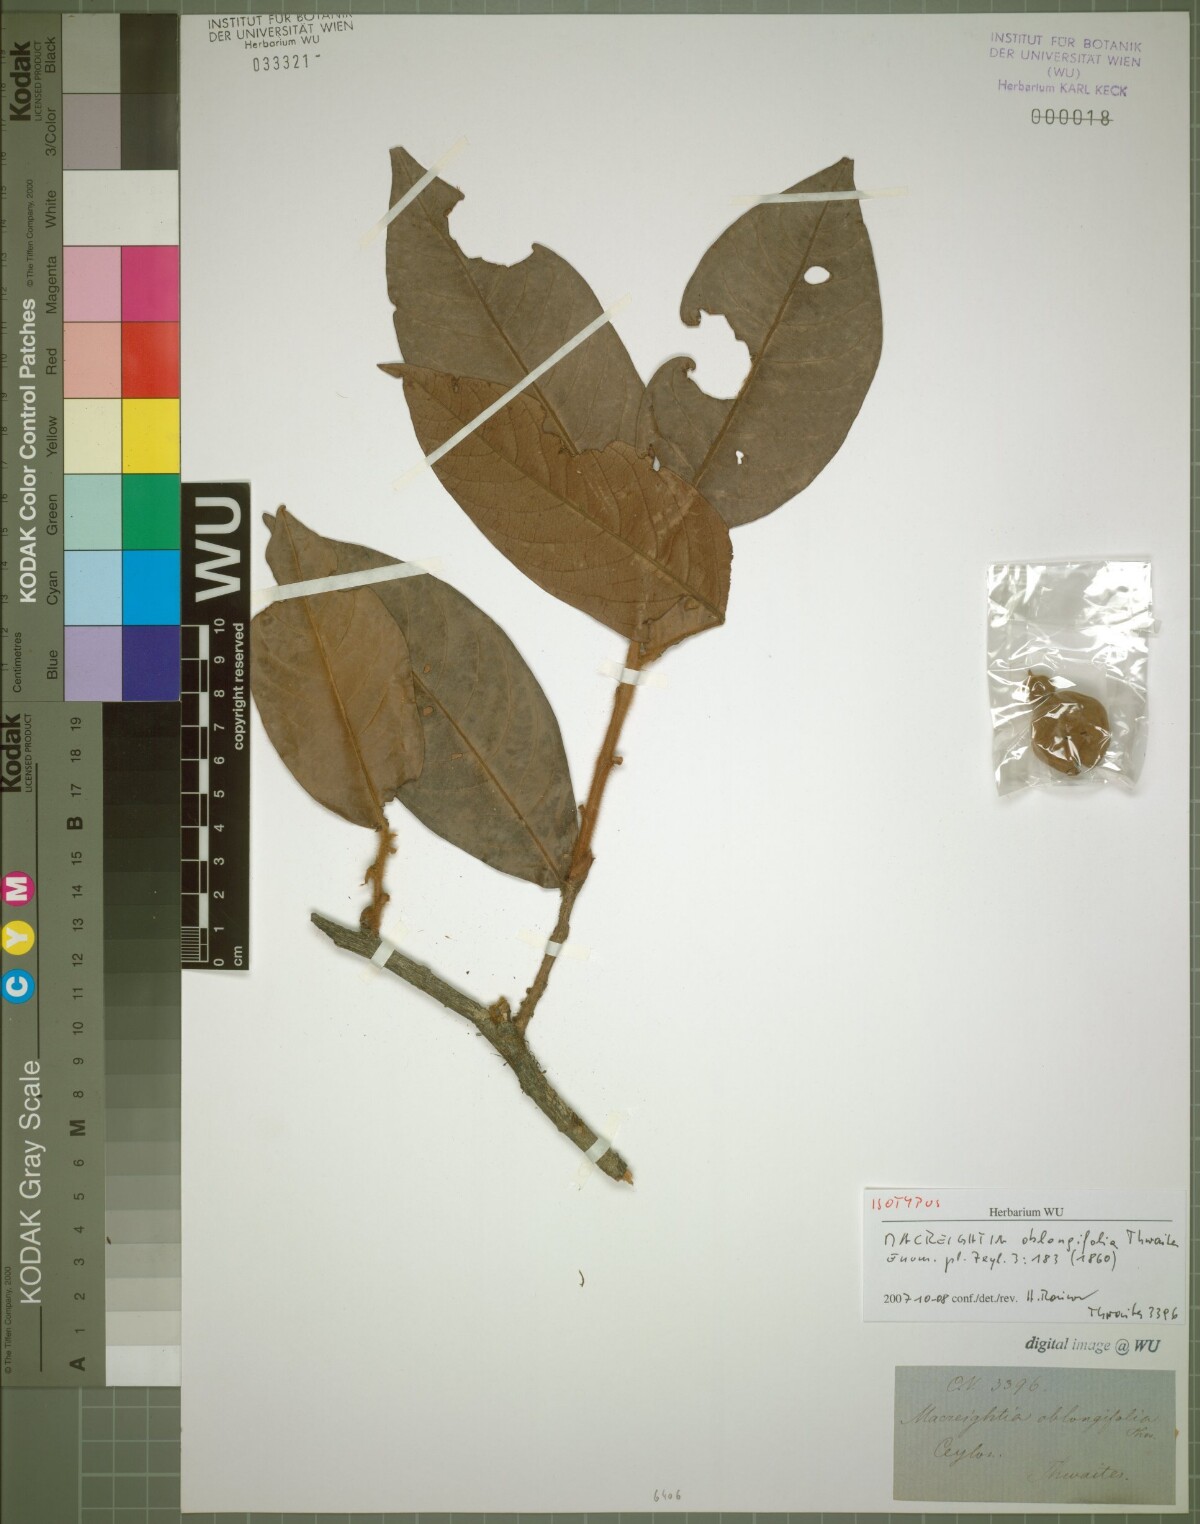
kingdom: Plantae
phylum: Tracheophyta
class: Magnoliopsida
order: Ericales
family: Ebenaceae
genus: Diospyros
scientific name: Diospyros srilankana
